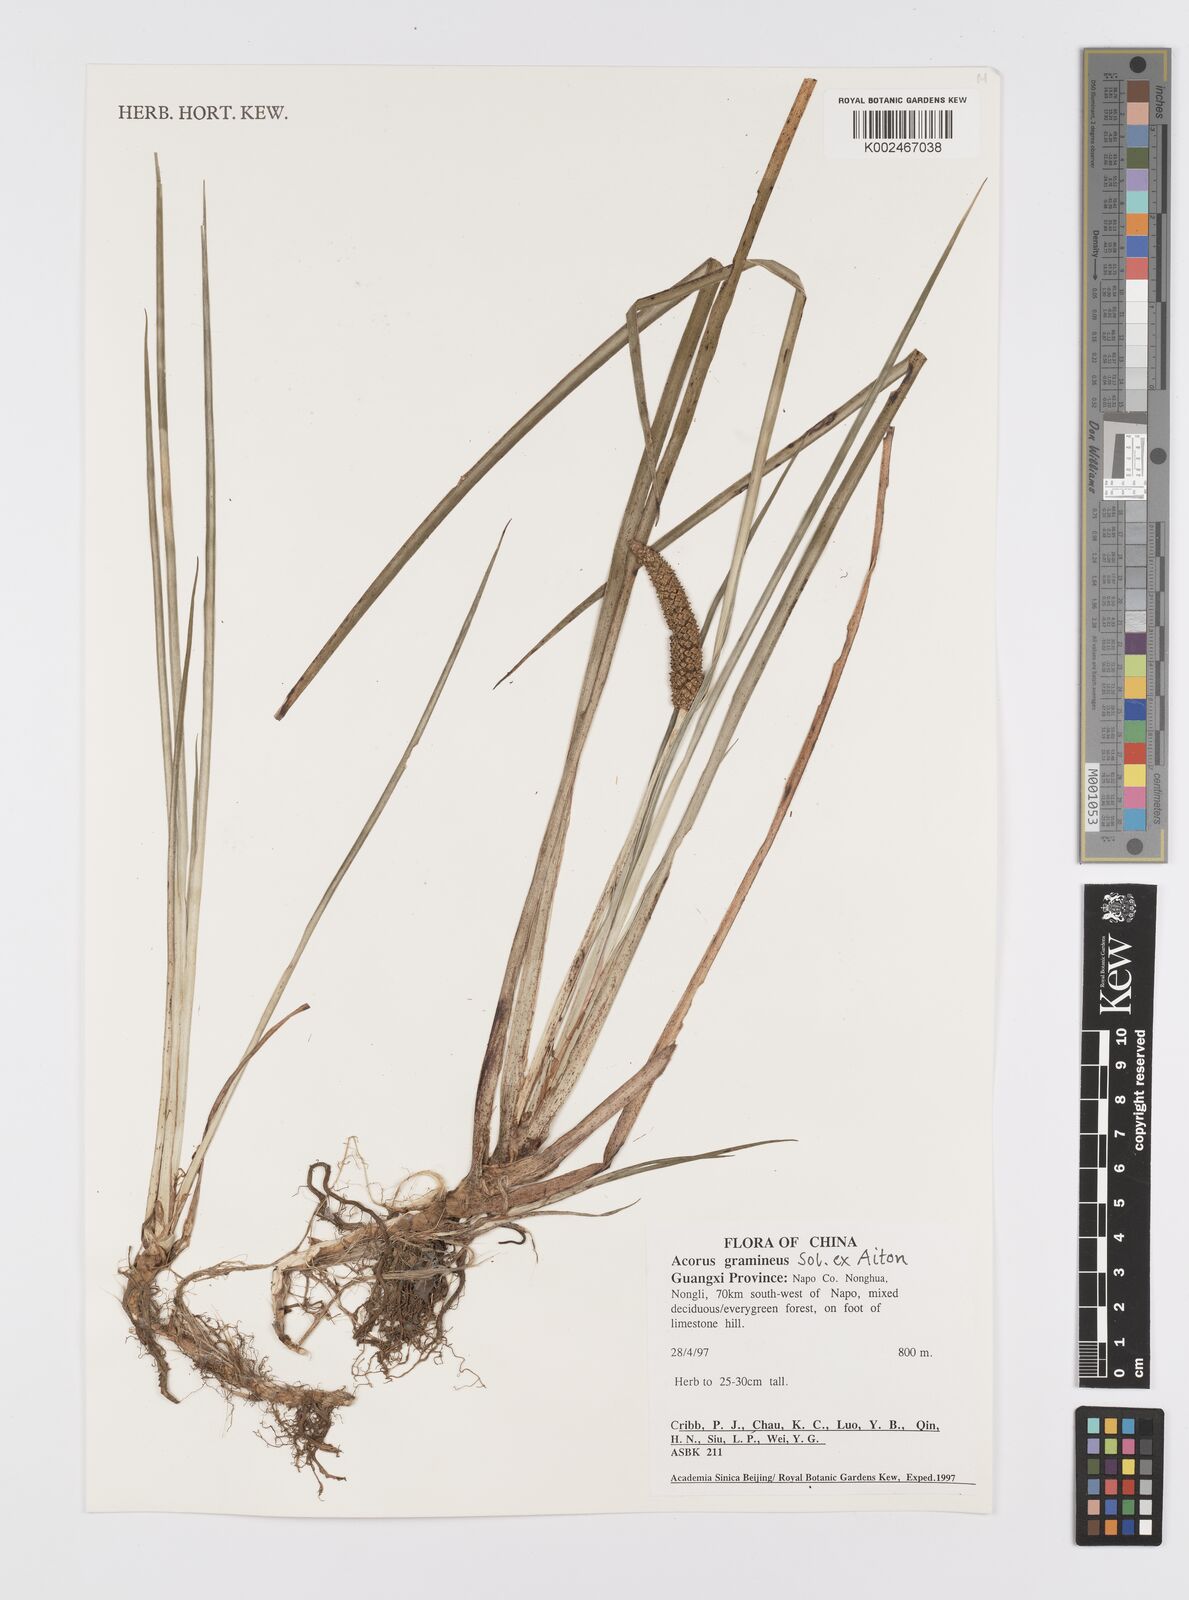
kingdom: Plantae
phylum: Tracheophyta
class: Liliopsida
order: Acorales
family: Acoraceae
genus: Acorus
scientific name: Acorus gramineus
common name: Slender sweet-flag
